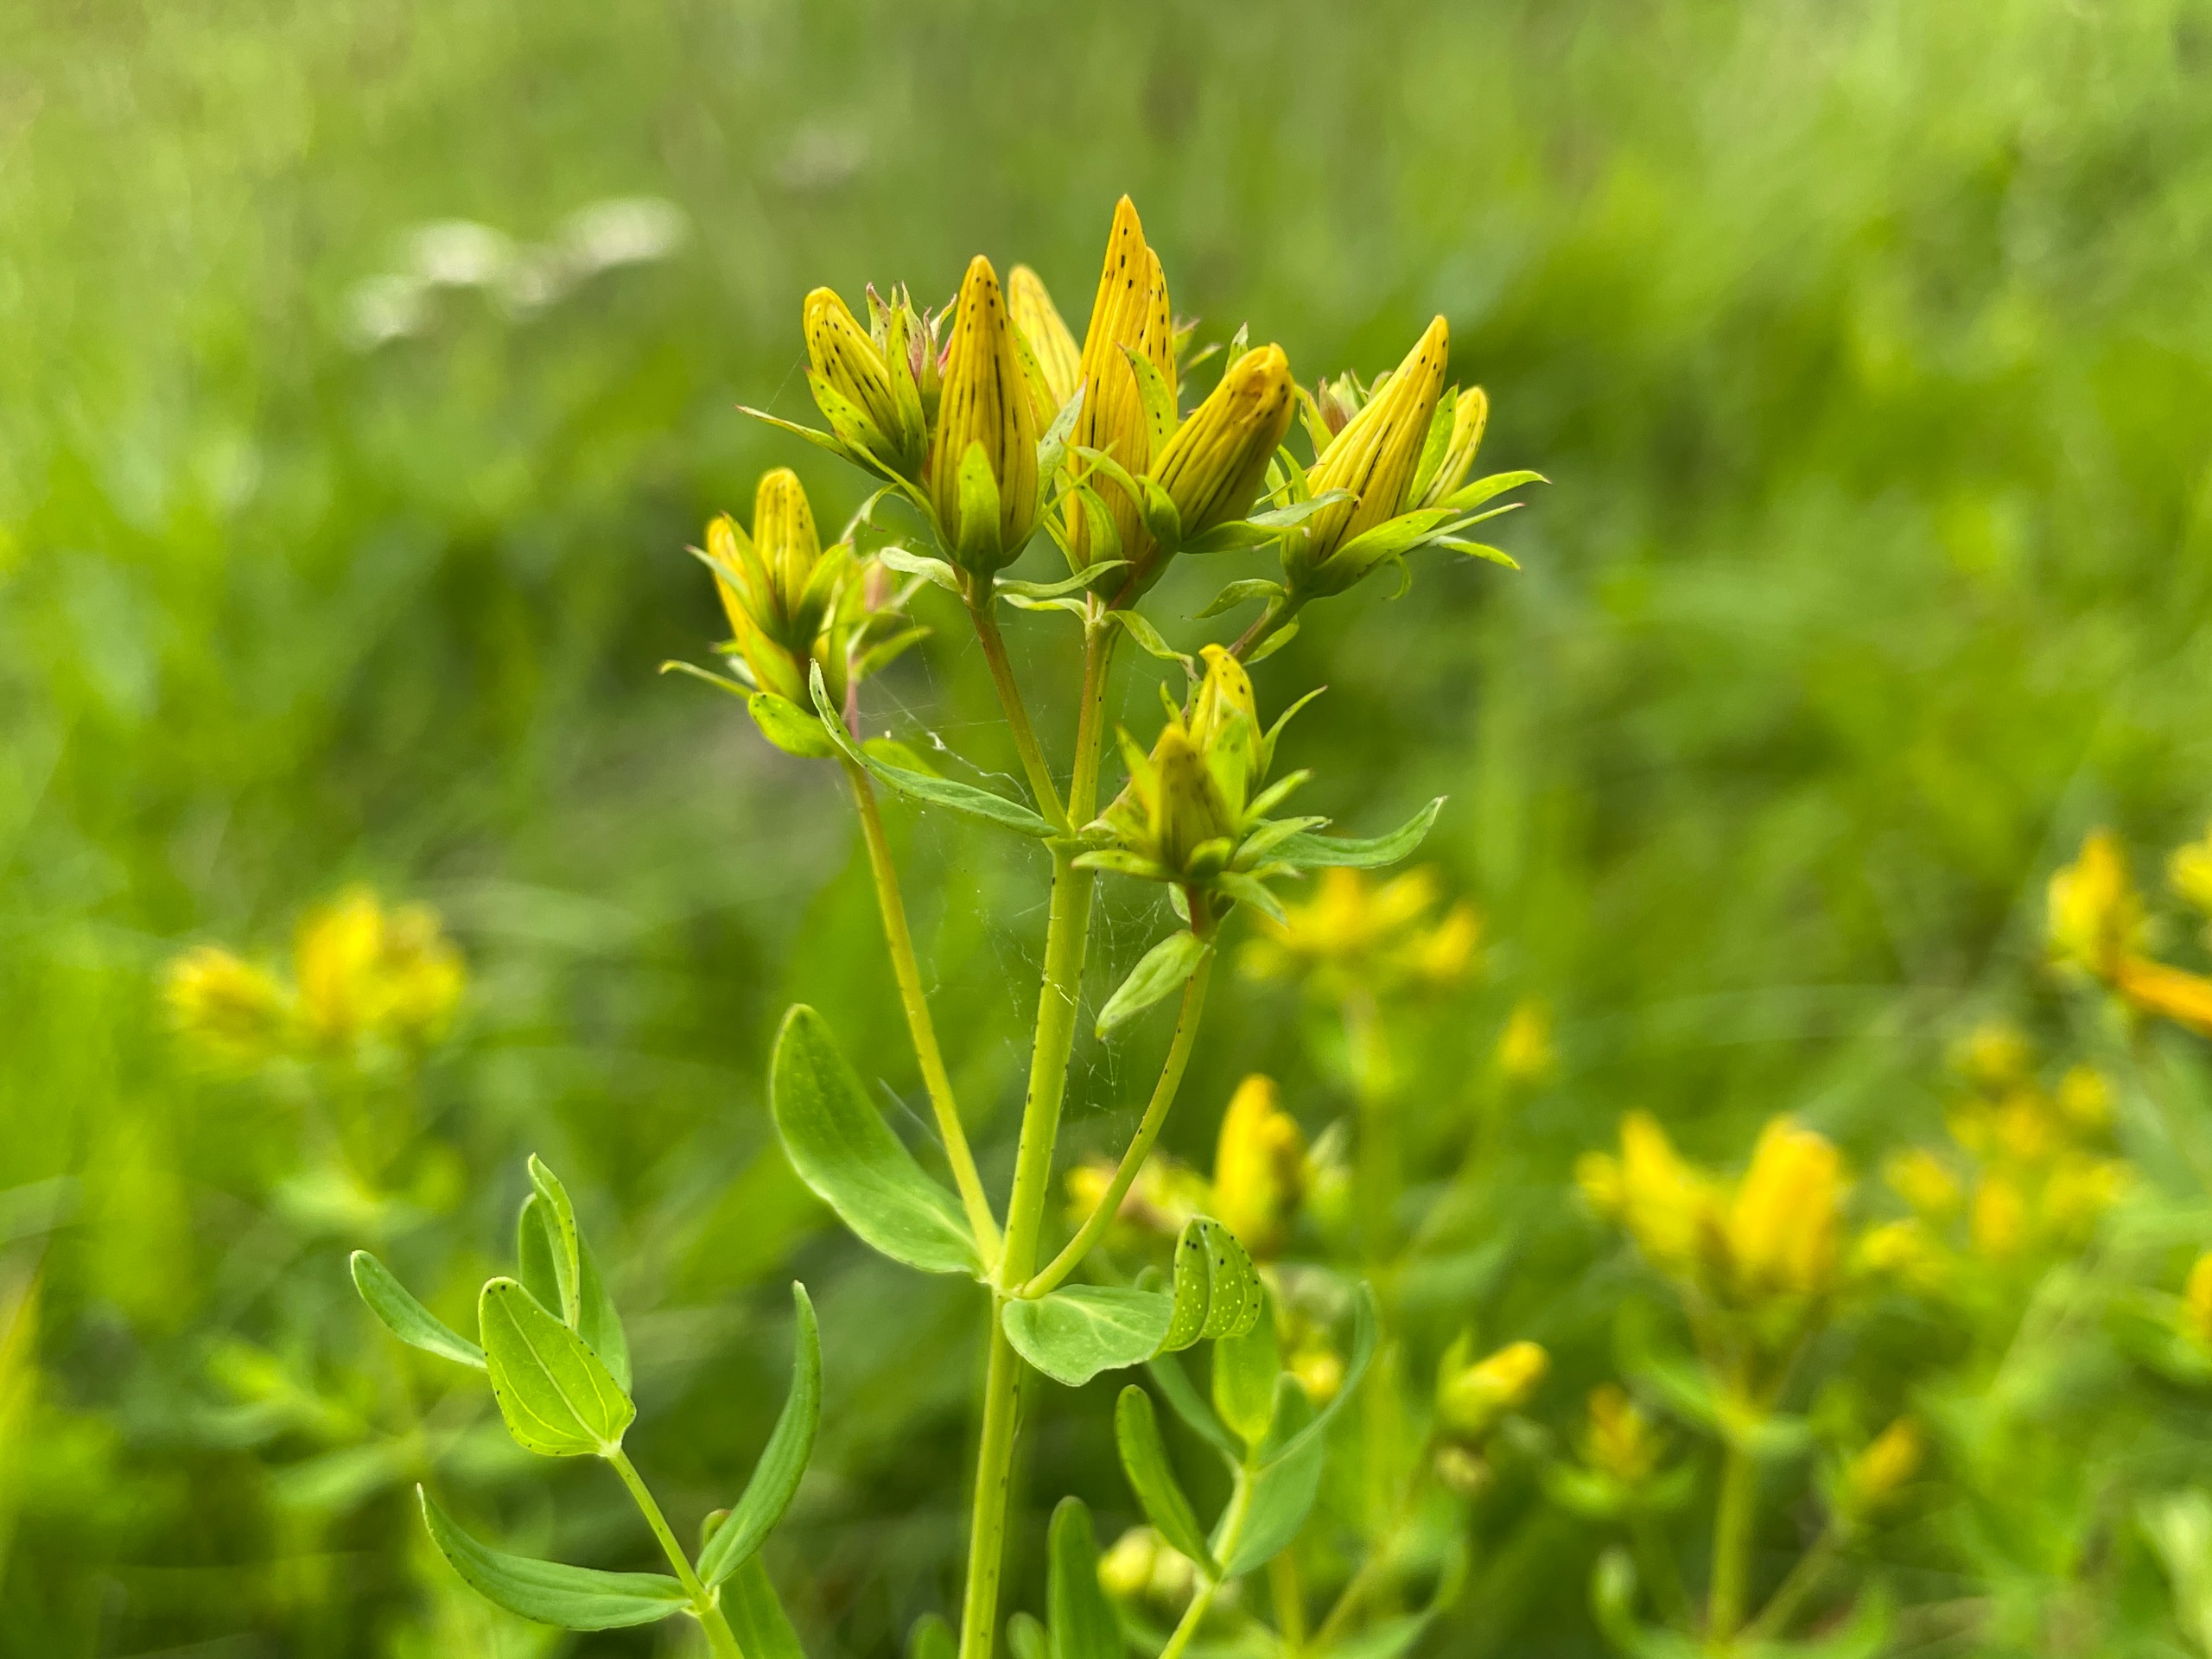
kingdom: Plantae
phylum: Tracheophyta
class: Magnoliopsida
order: Malpighiales
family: Hypericaceae
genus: Hypericum
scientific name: Hypericum perforatum
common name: Prikbladet perikon
